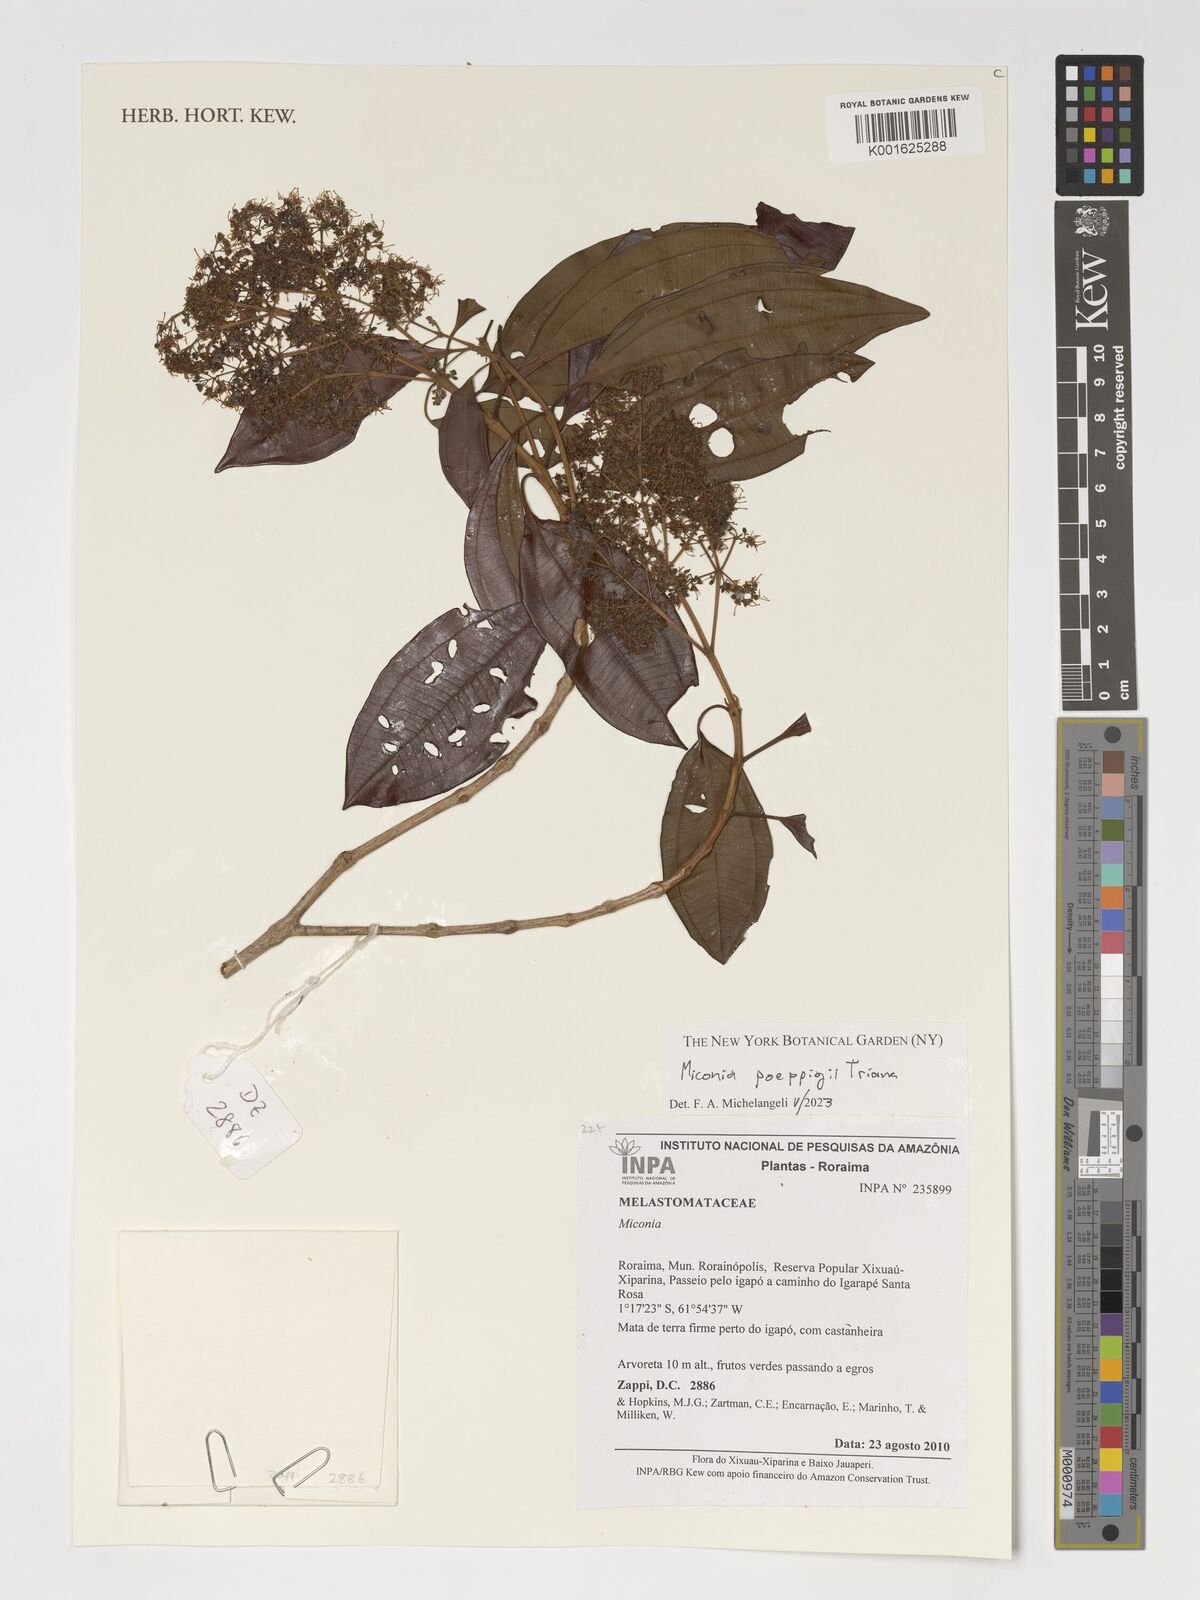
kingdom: Plantae
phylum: Tracheophyta
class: Magnoliopsida
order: Myrtales
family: Melastomataceae
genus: Miconia
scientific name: Miconia poeppigii
